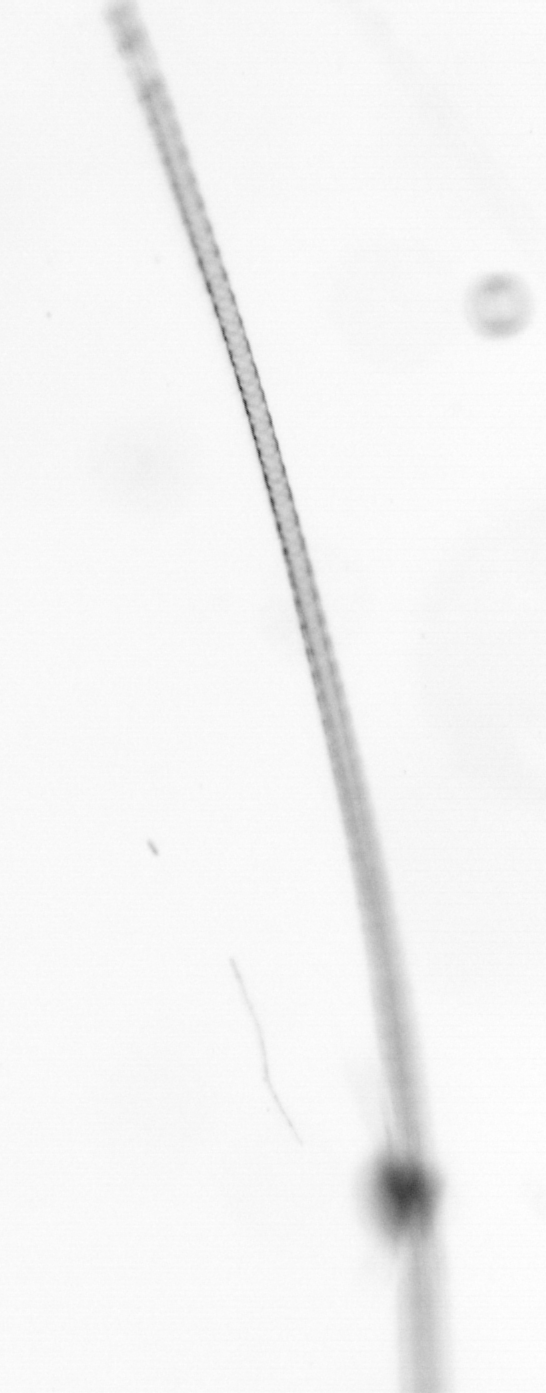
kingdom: Chromista
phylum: Ochrophyta
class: Bacillariophyceae
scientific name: Bacillariophyceae
